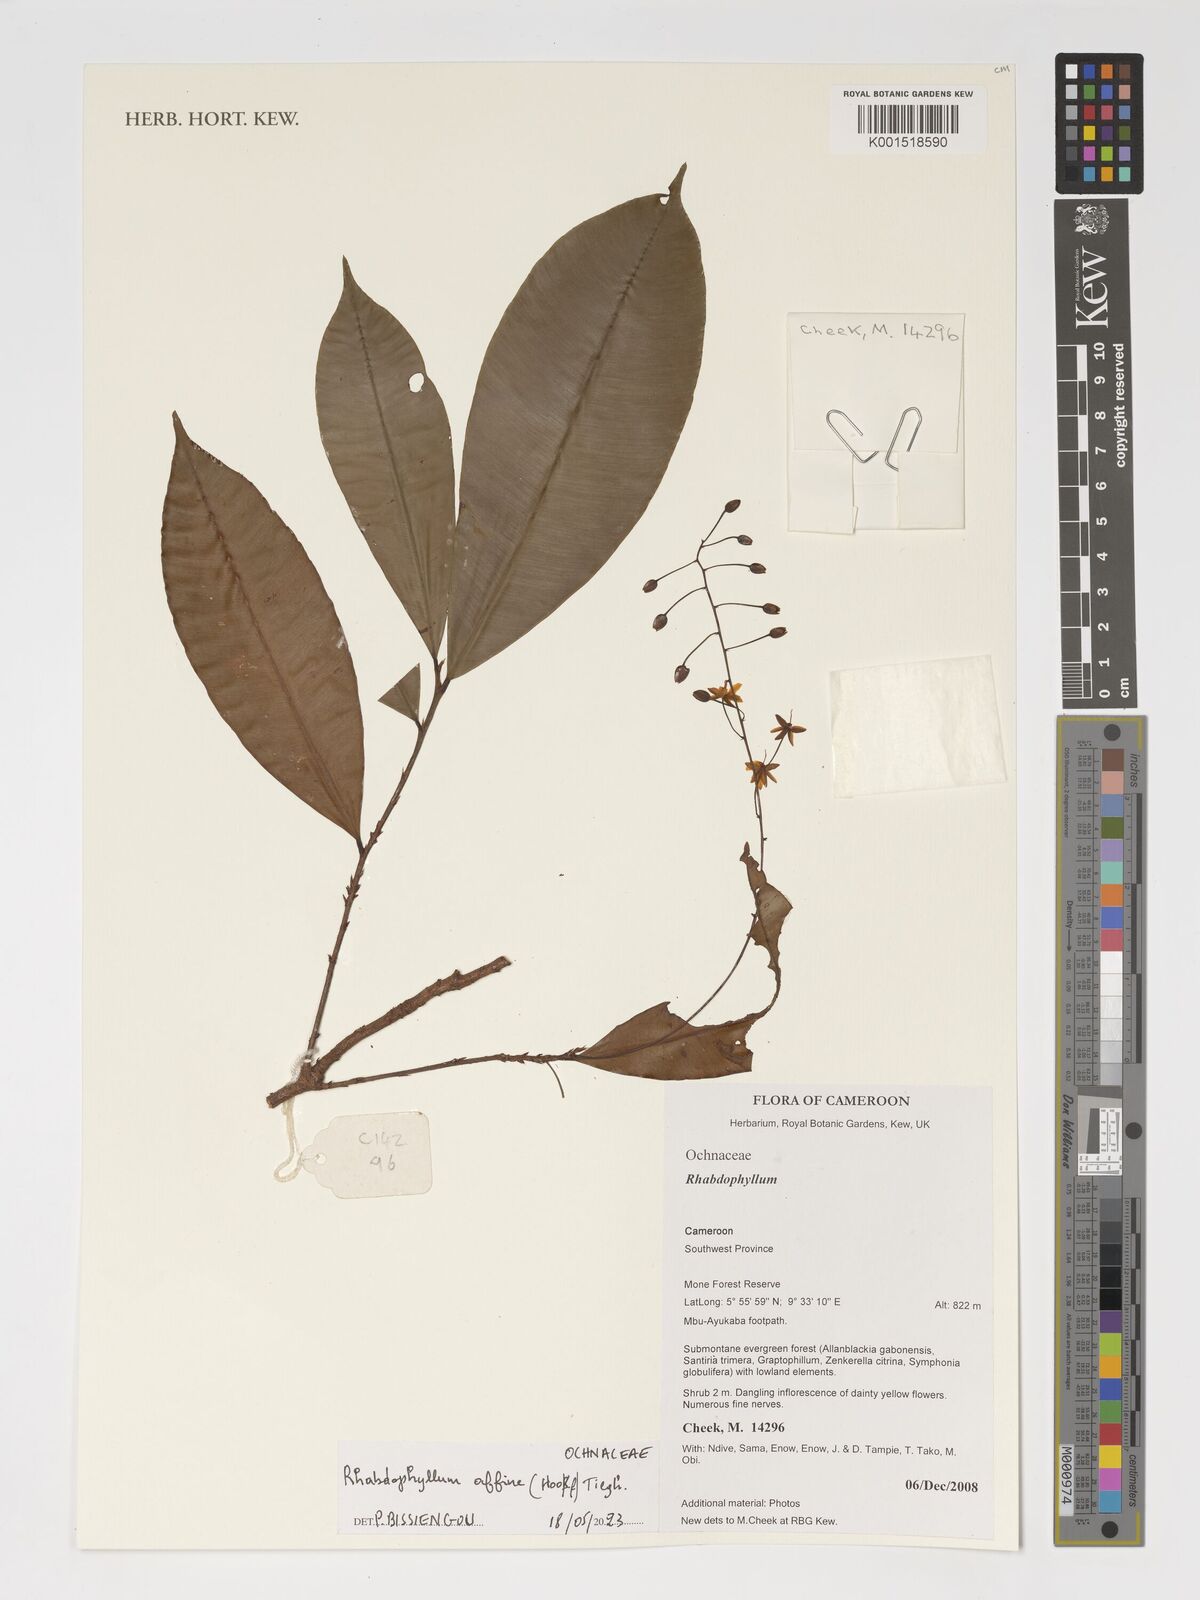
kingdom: Plantae
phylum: Tracheophyta
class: Magnoliopsida
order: Malpighiales
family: Ochnaceae
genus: Rhabdophyllum
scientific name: Rhabdophyllum affine
